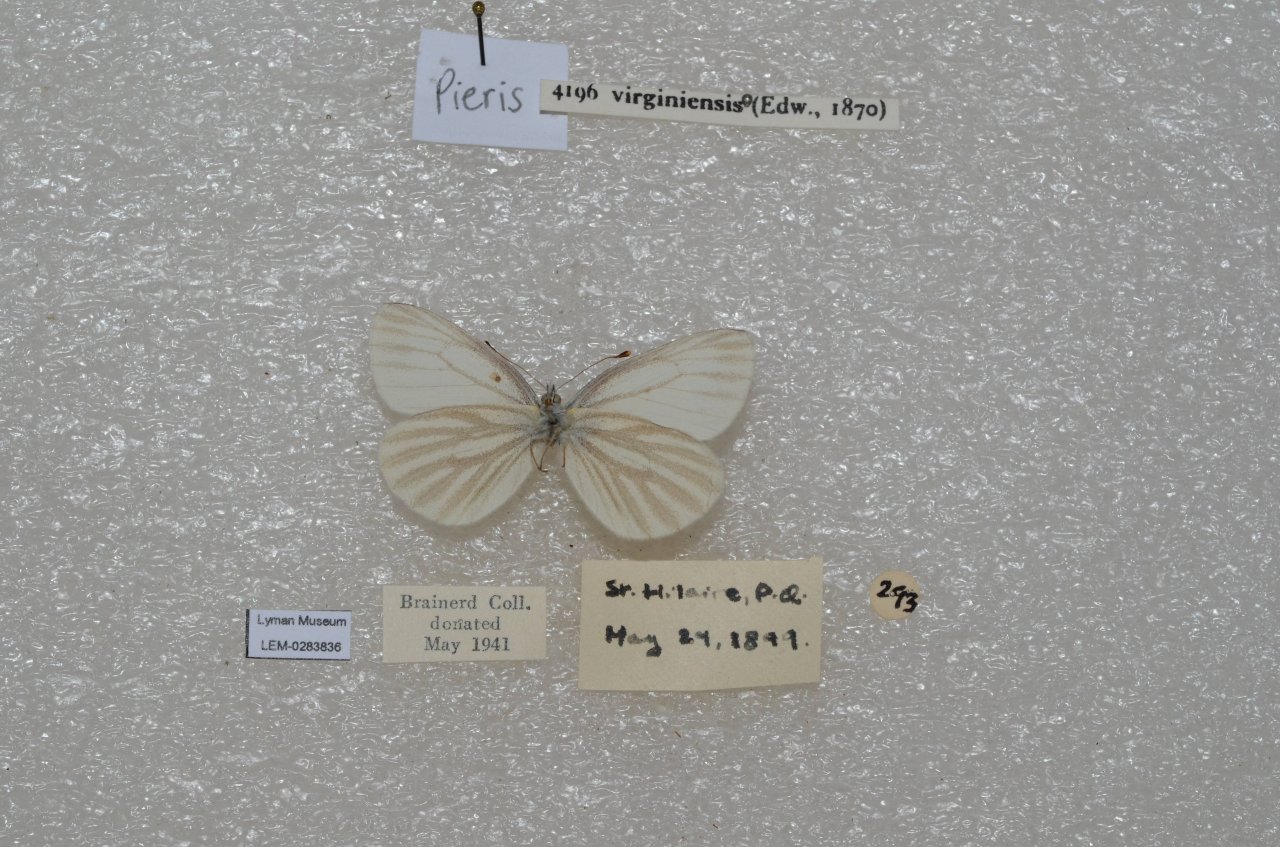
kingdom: Animalia
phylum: Arthropoda
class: Insecta
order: Lepidoptera
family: Pieridae
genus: Pieris
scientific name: Pieris virginiensis
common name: West Virginia White
